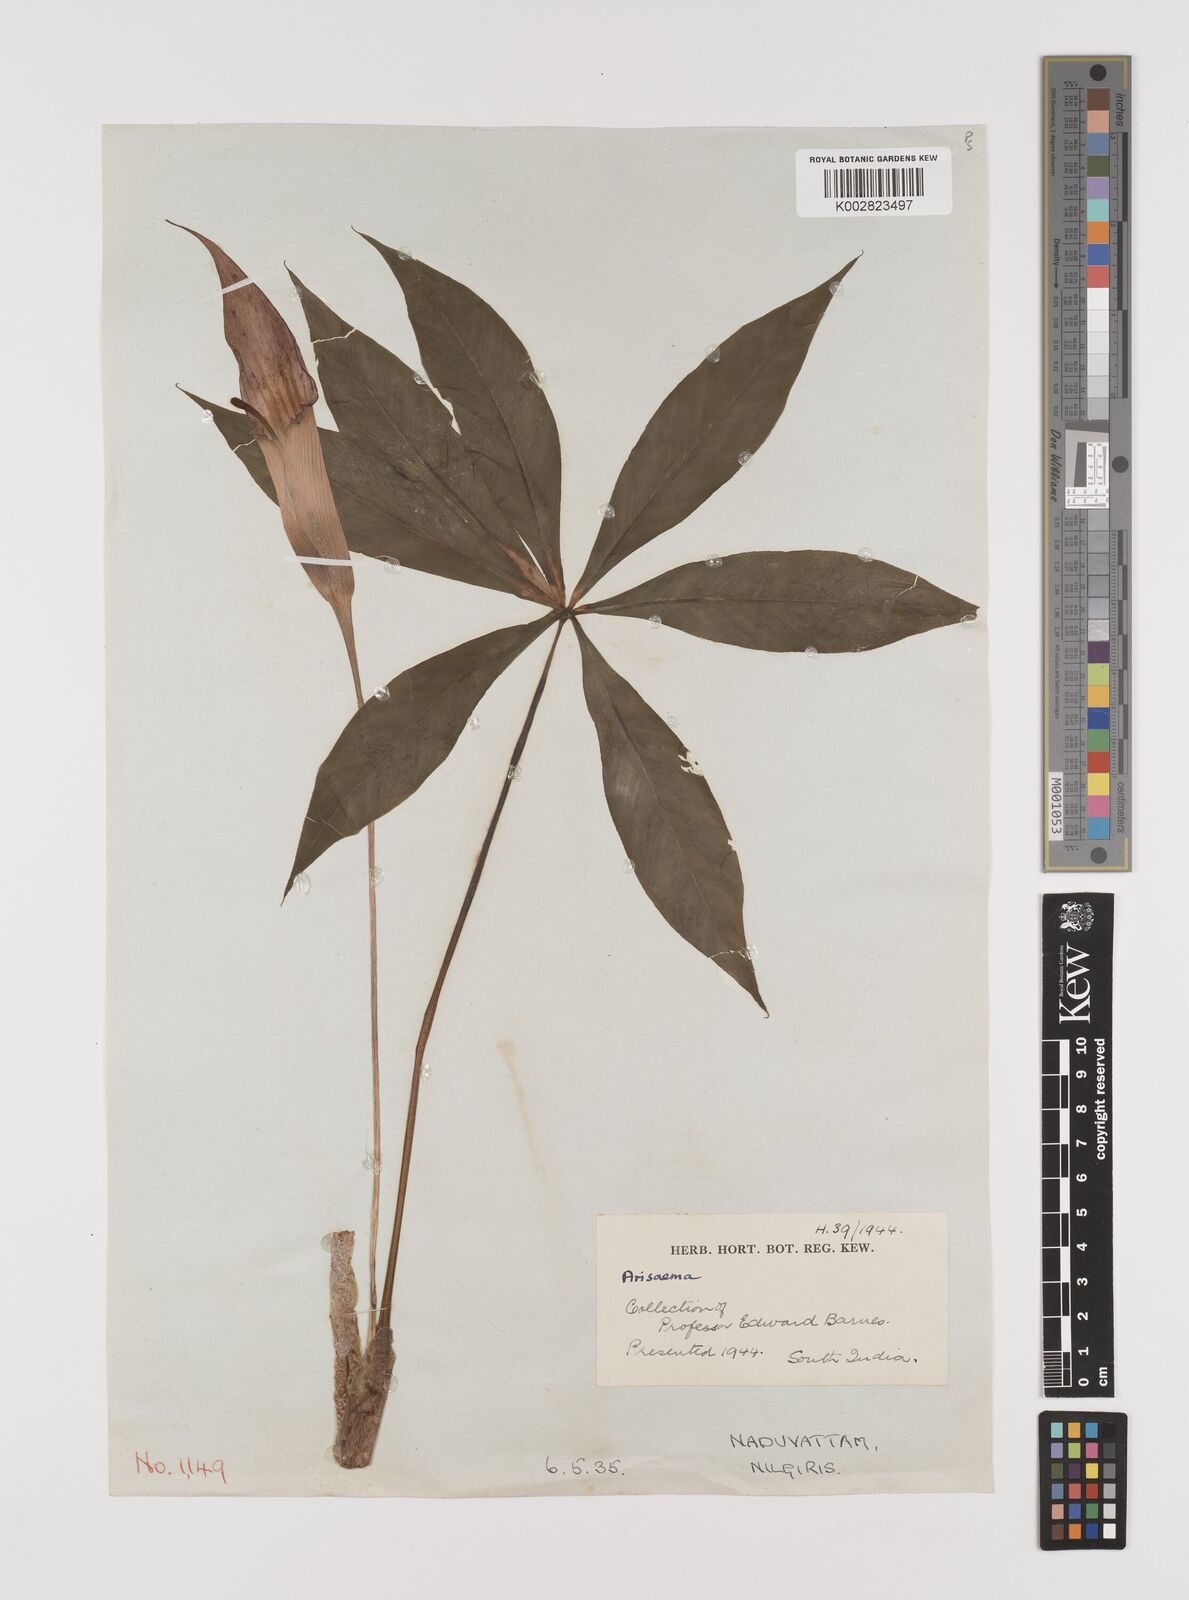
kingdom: Plantae
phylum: Tracheophyta
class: Liliopsida
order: Alismatales
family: Araceae
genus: Arisaema
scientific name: Arisaema
